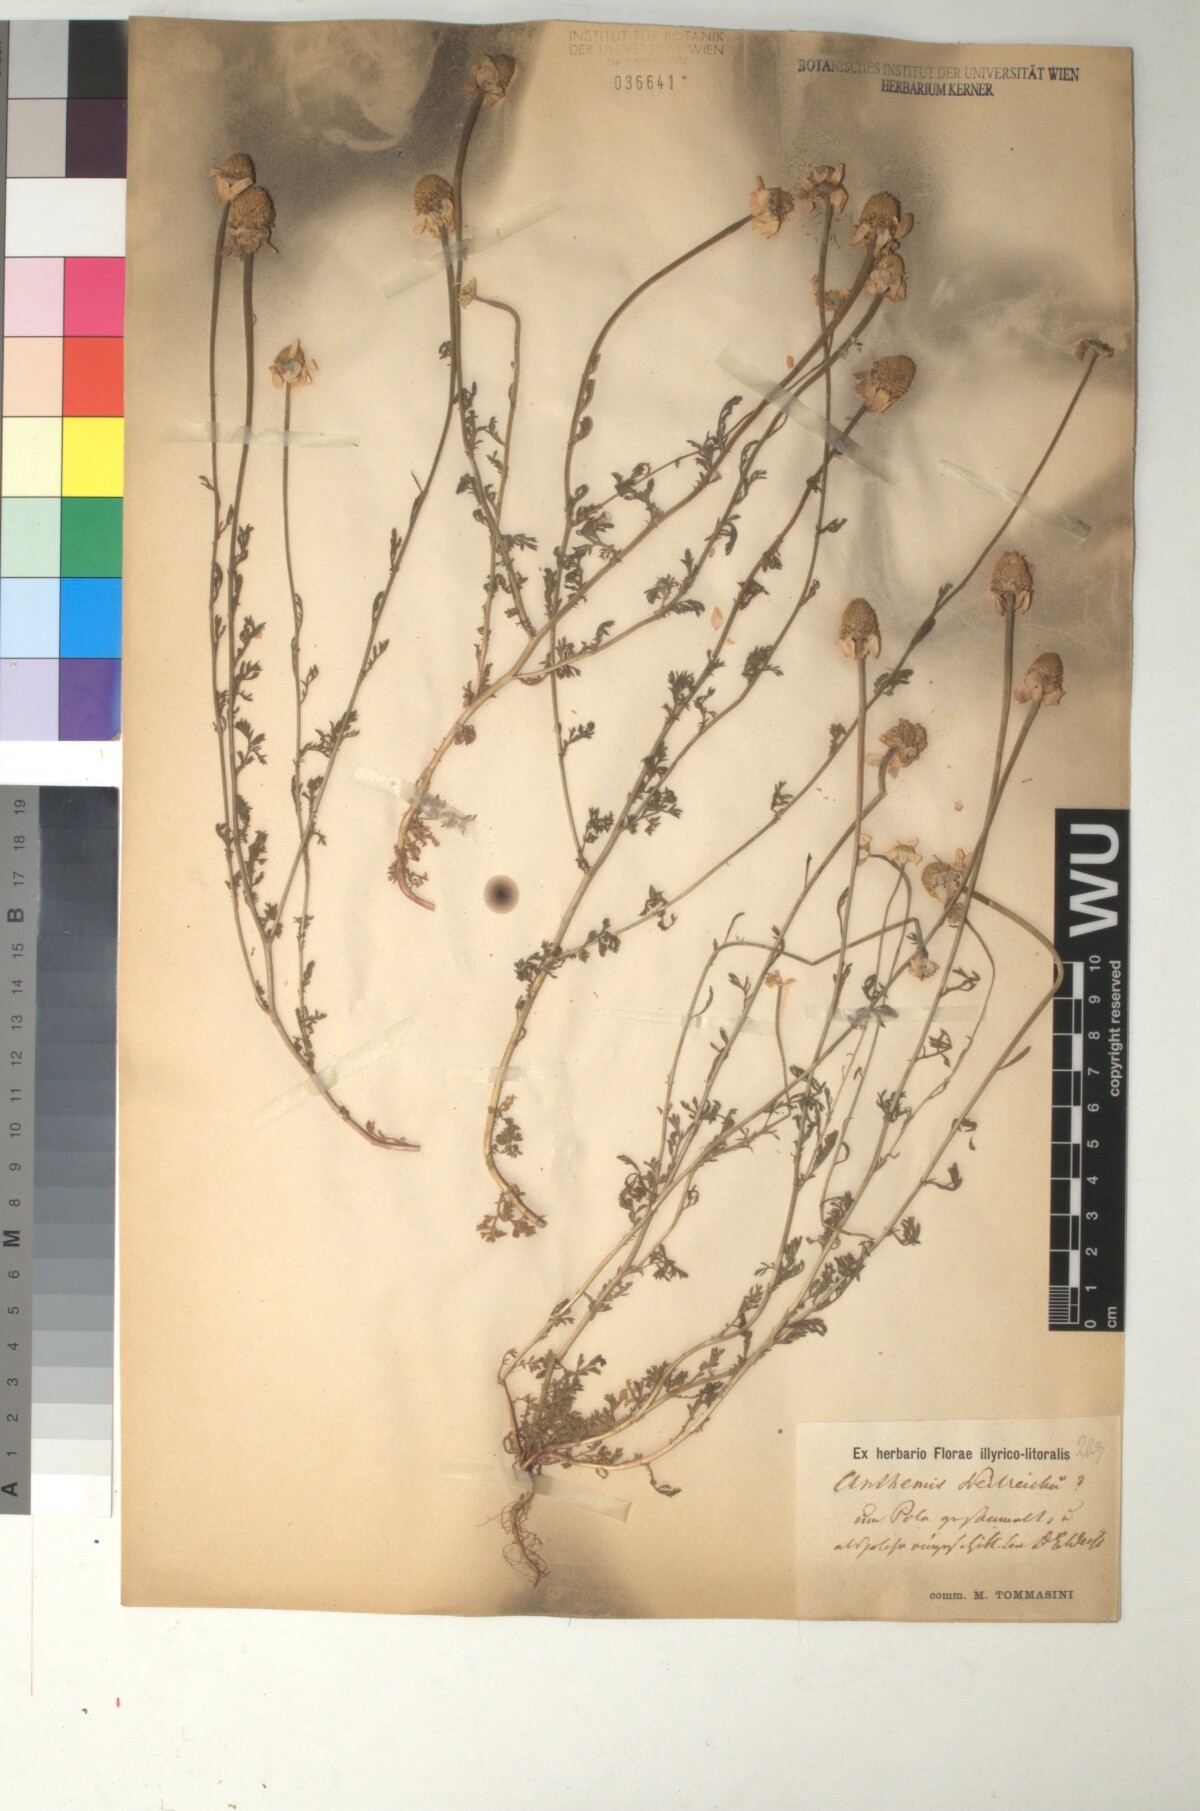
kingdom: Plantae
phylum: Tracheophyta
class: Magnoliopsida
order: Asterales
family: Asteraceae
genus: Anthemis
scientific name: Anthemis ruthenica
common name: Eastern chamomile
